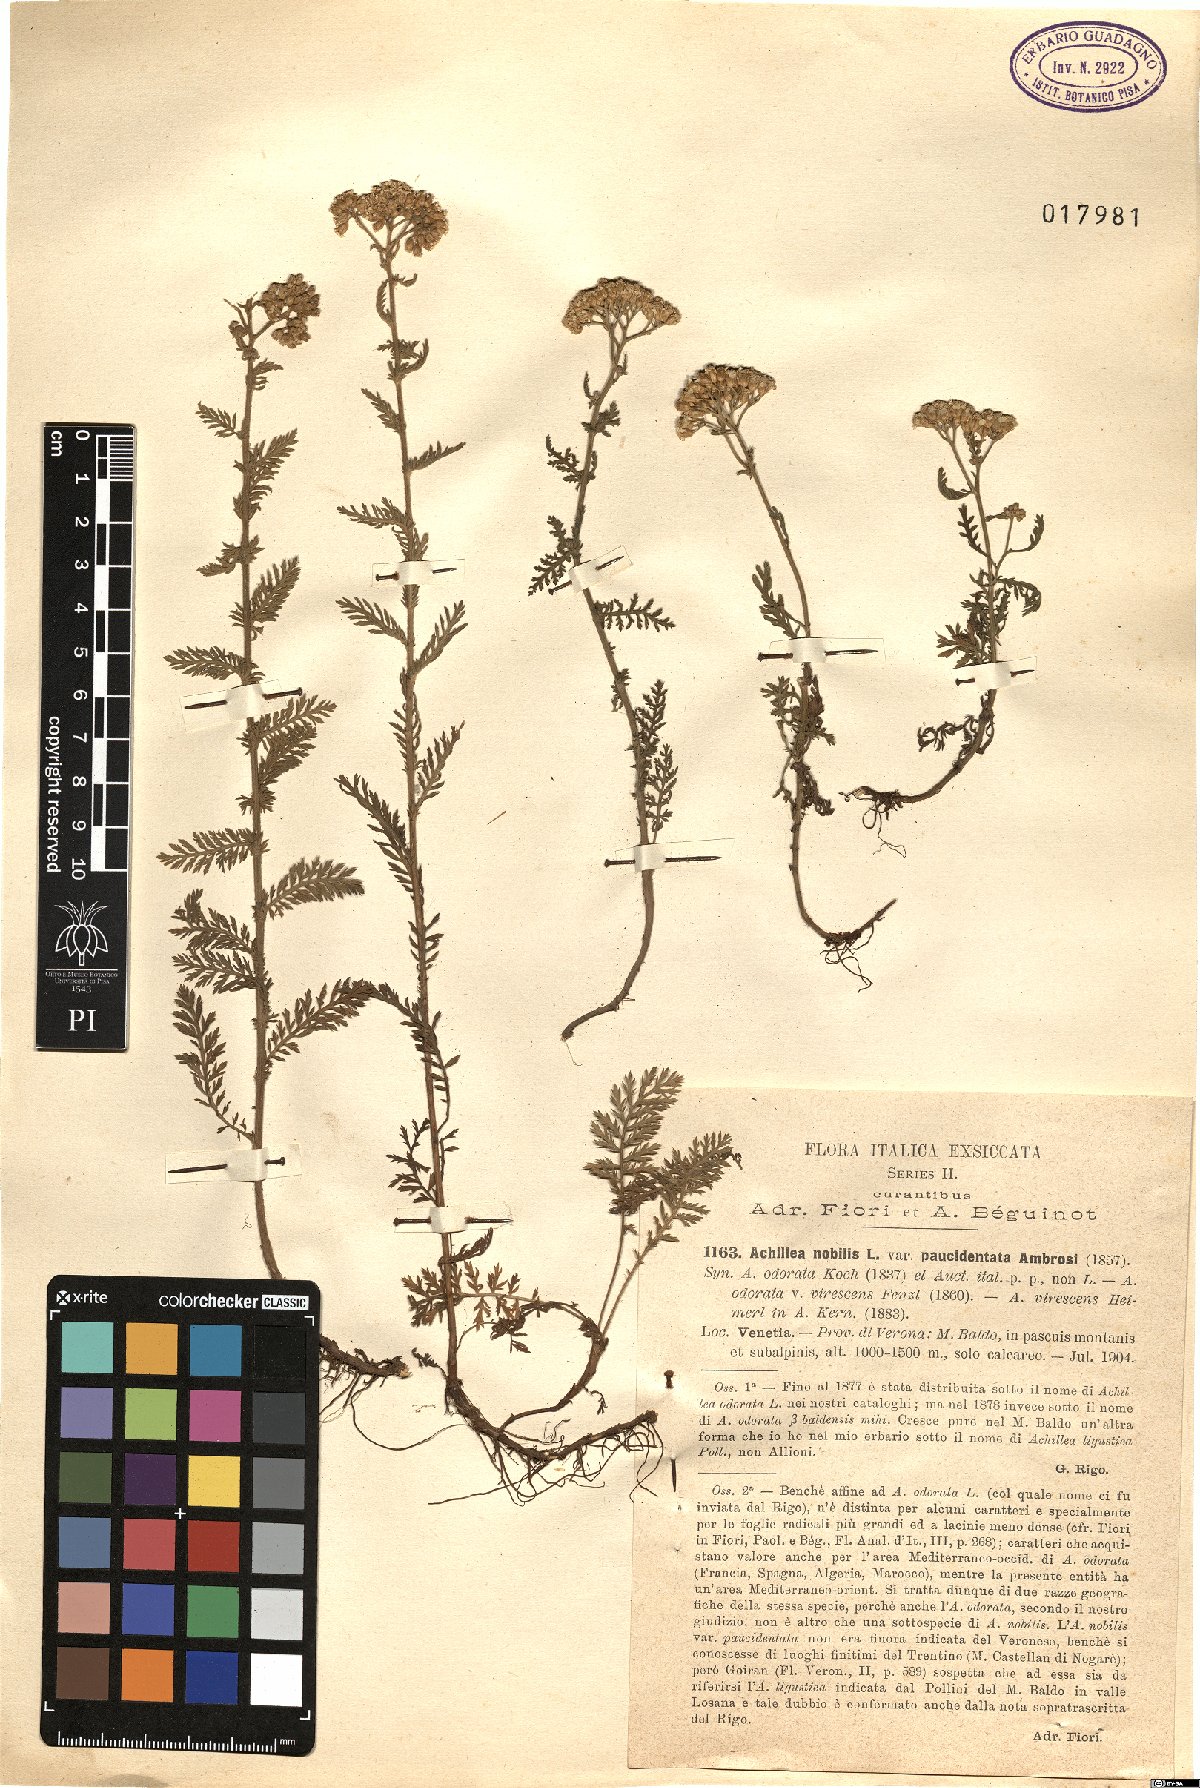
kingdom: Plantae
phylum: Tracheophyta
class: Magnoliopsida
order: Asterales
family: Asteraceae
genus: Achillea
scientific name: Achillea virescens
